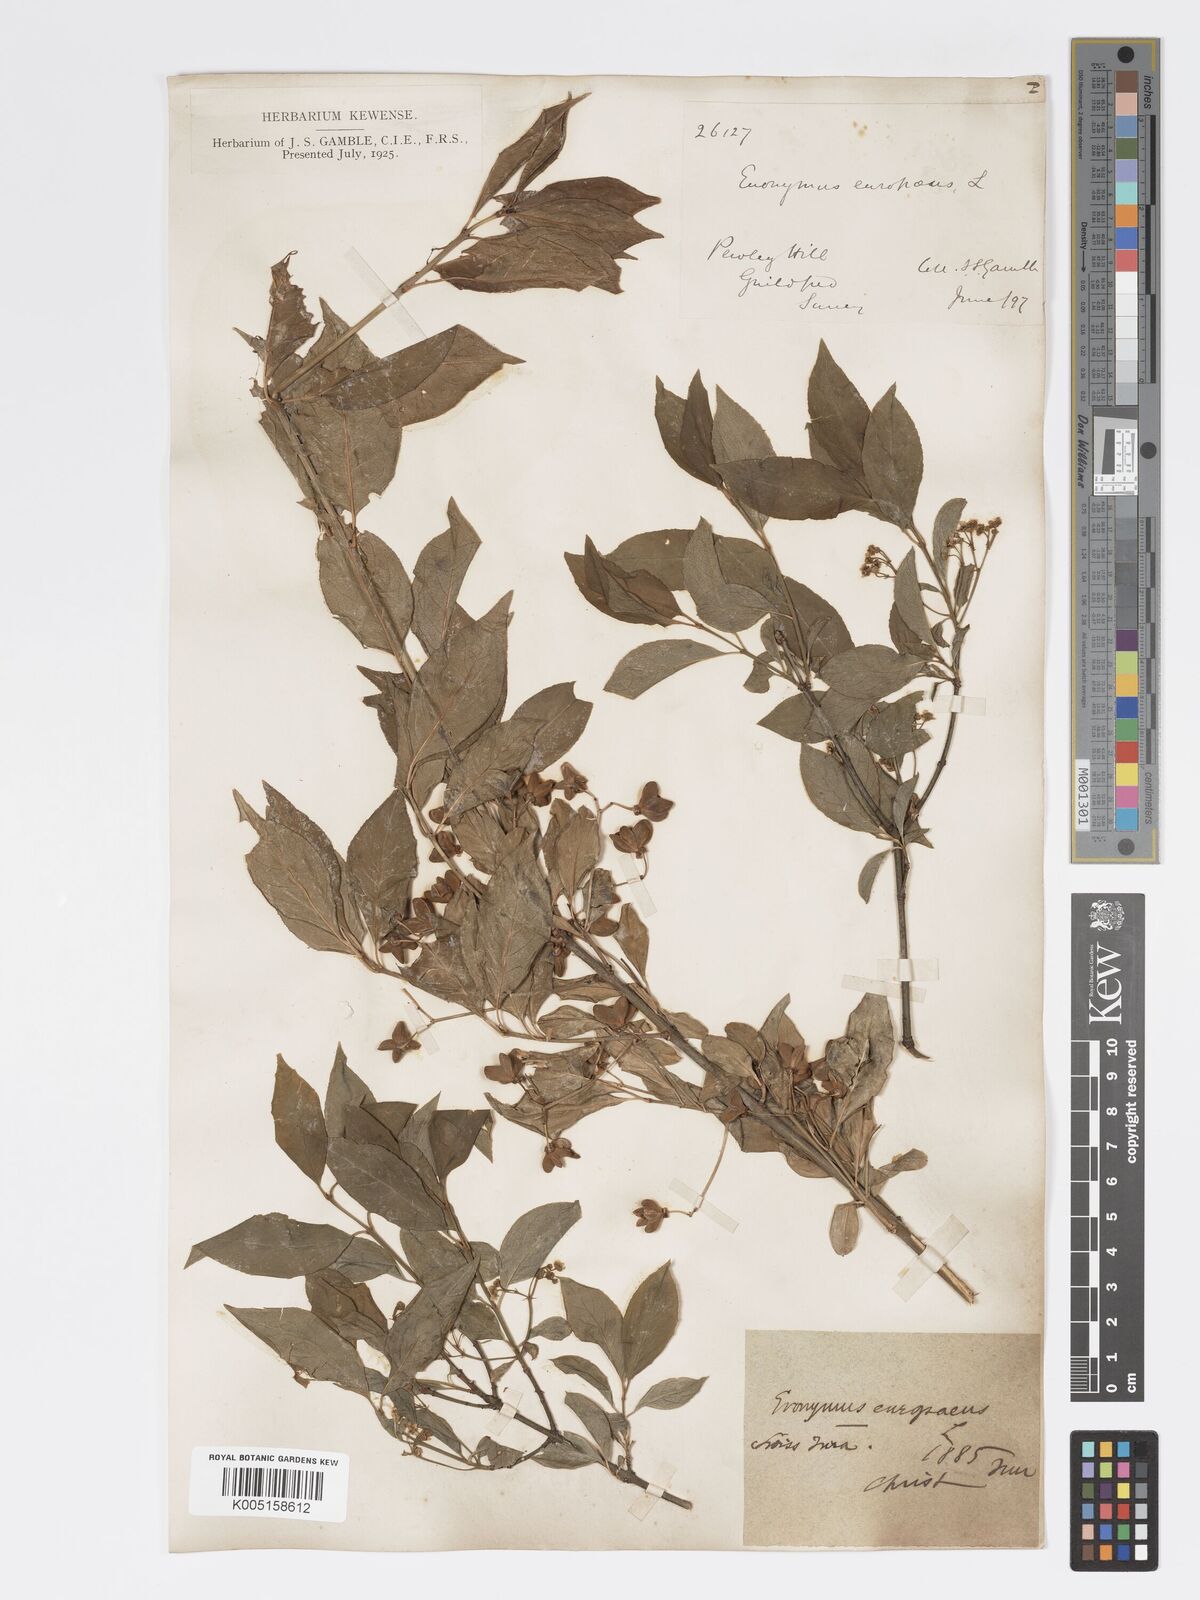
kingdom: Plantae
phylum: Tracheophyta
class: Magnoliopsida
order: Celastrales
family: Celastraceae
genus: Euonymus
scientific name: Euonymus europaeus
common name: Spindle
